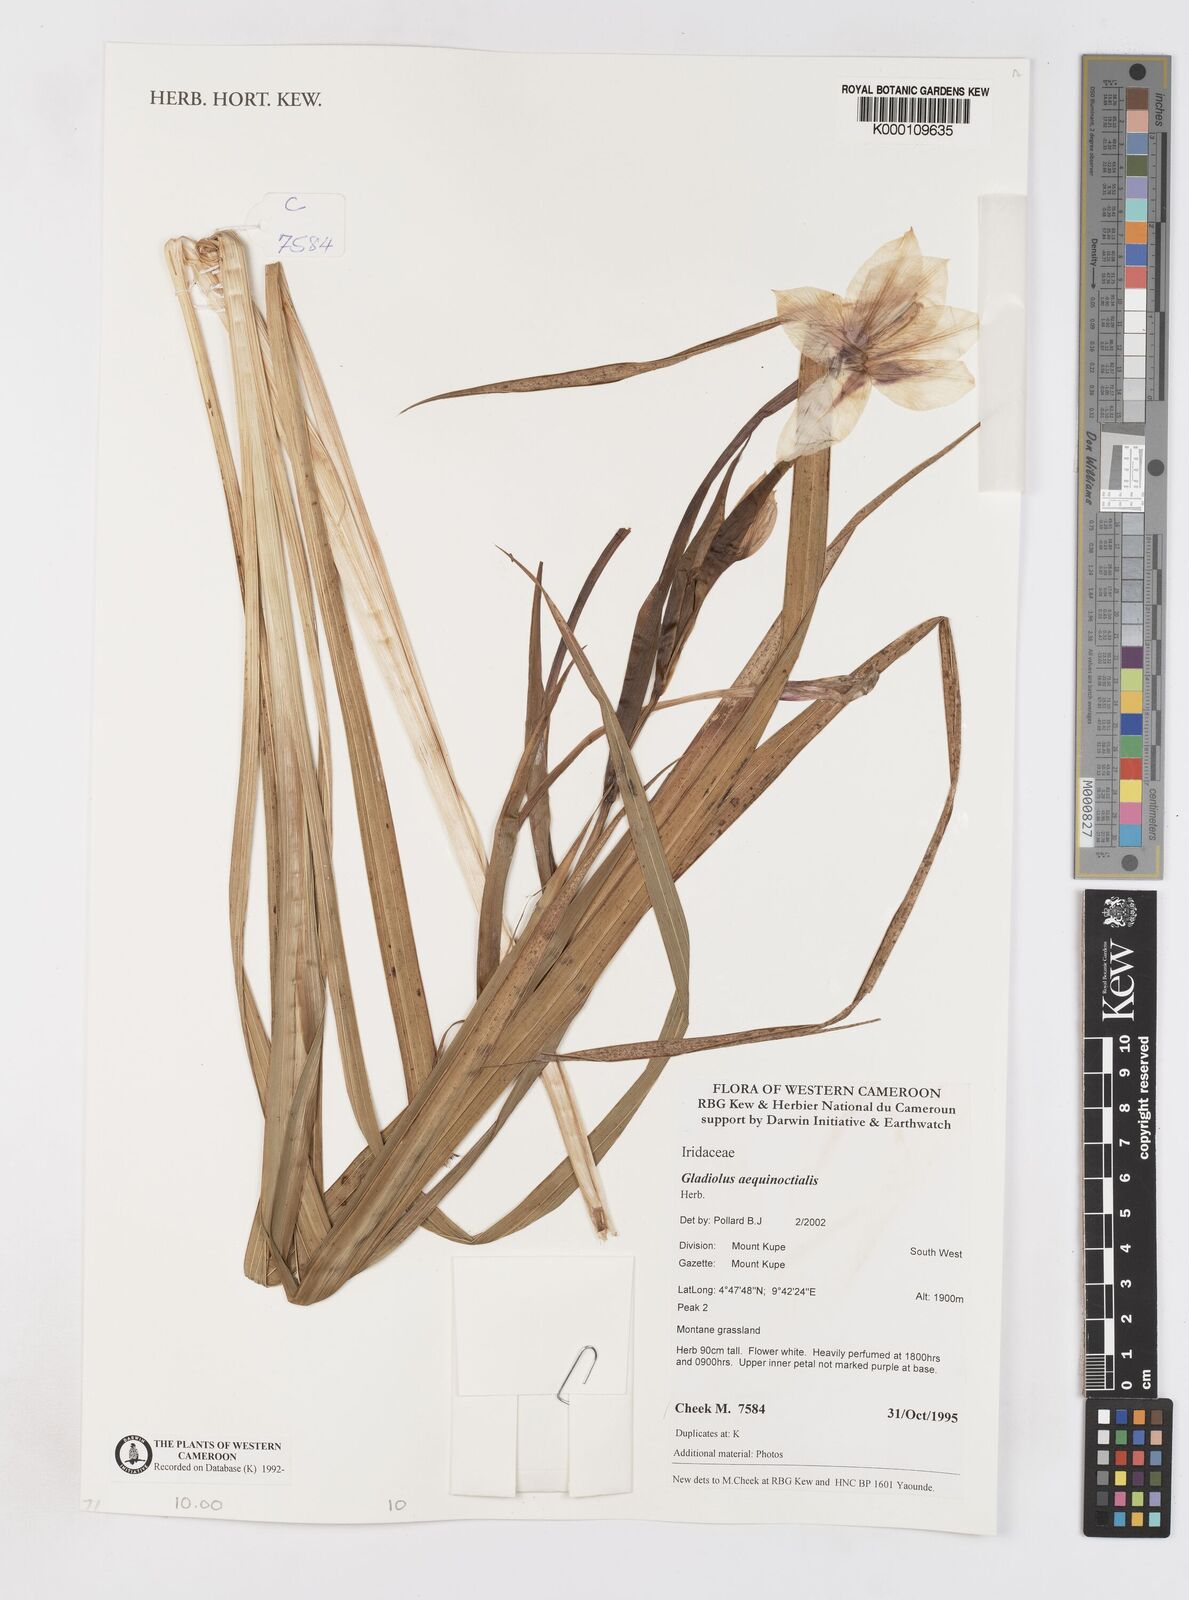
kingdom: Plantae
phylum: Tracheophyta
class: Liliopsida
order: Asparagales
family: Iridaceae
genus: Gladiolus
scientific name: Gladiolus aequinoctialis
